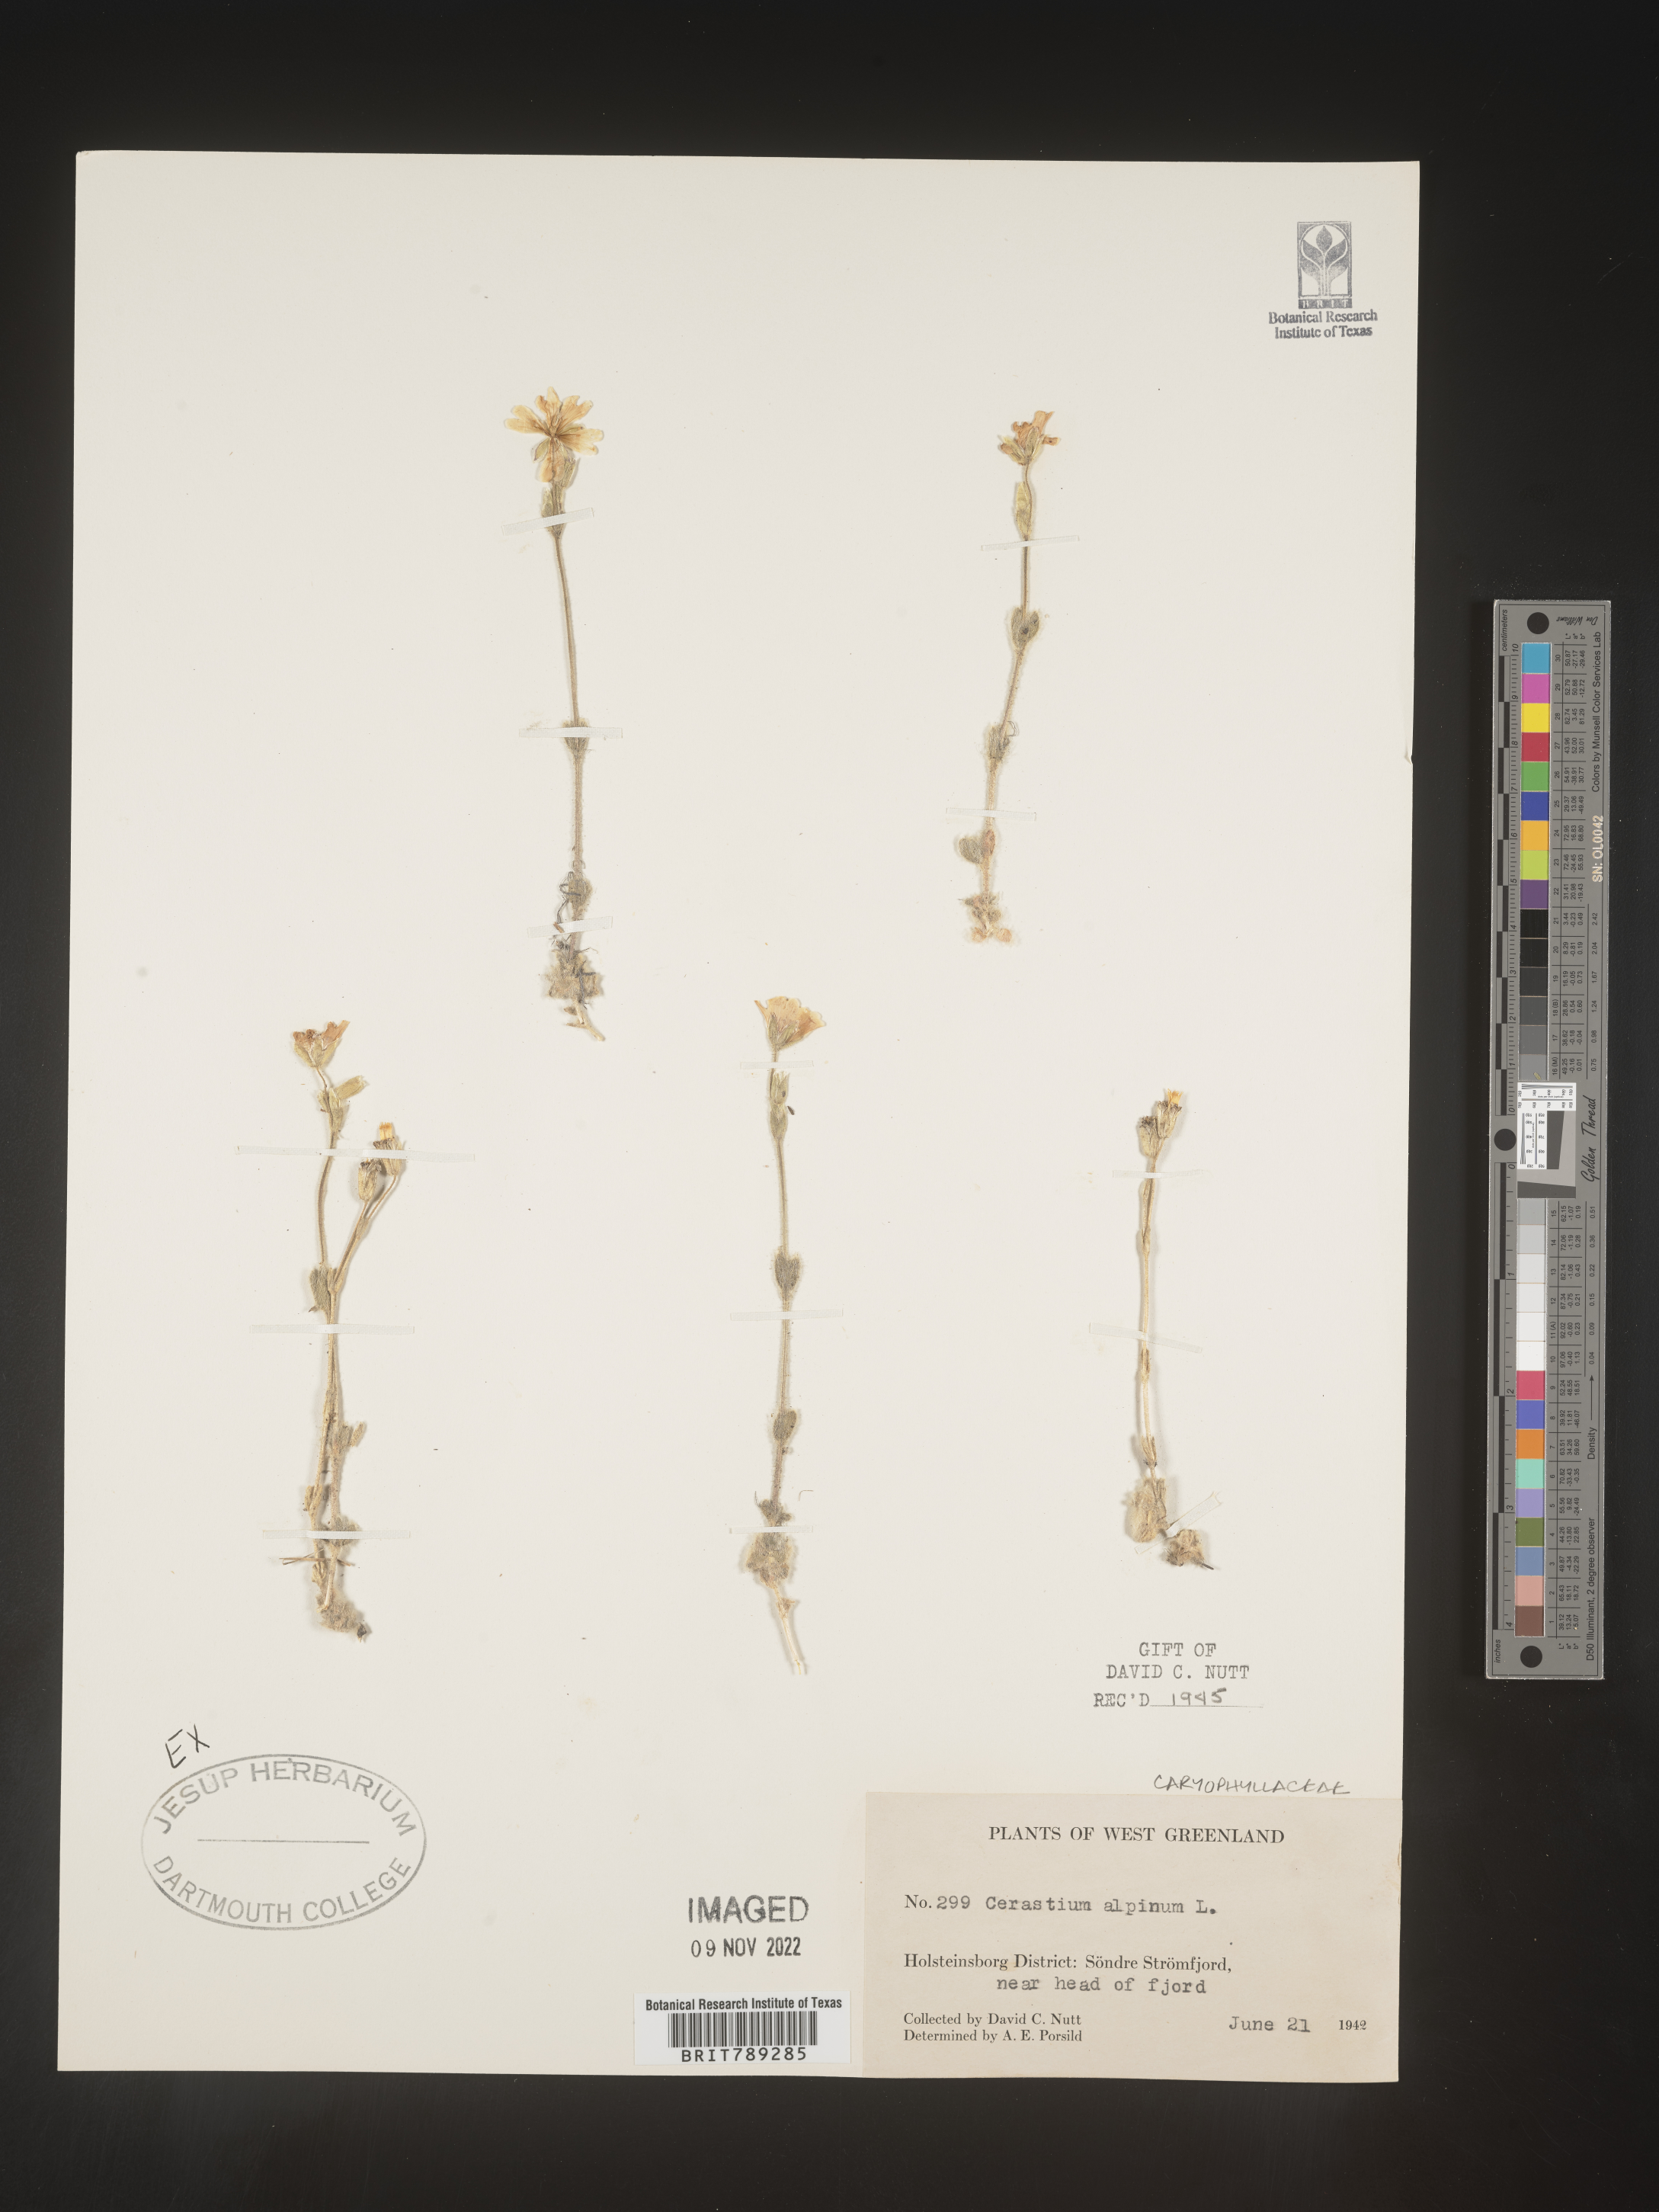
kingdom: Plantae
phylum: Tracheophyta
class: Magnoliopsida
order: Caryophyllales
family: Caryophyllaceae
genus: Cerastium
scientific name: Cerastium alpinum
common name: Alpine mouse-ear
